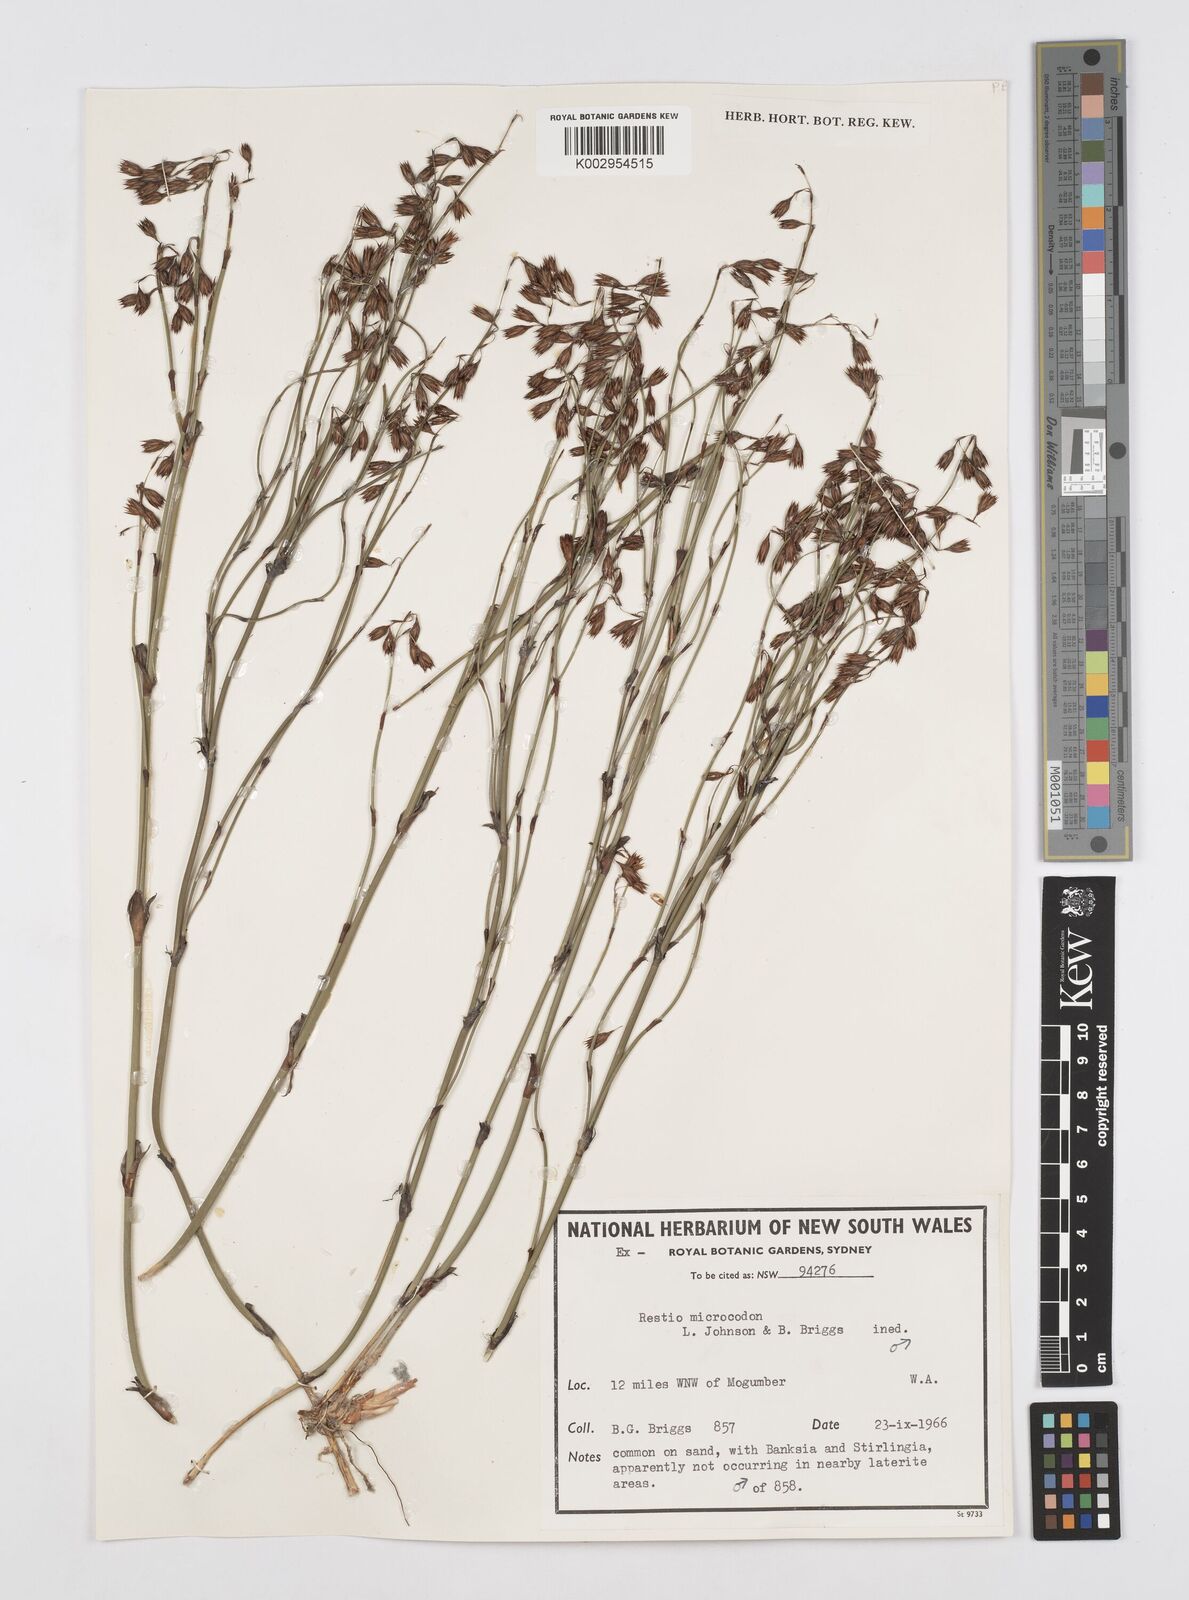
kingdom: Plantae
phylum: Tracheophyta
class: Liliopsida
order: Poales
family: Restionaceae
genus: Chordifex
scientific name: Chordifex microcodon
